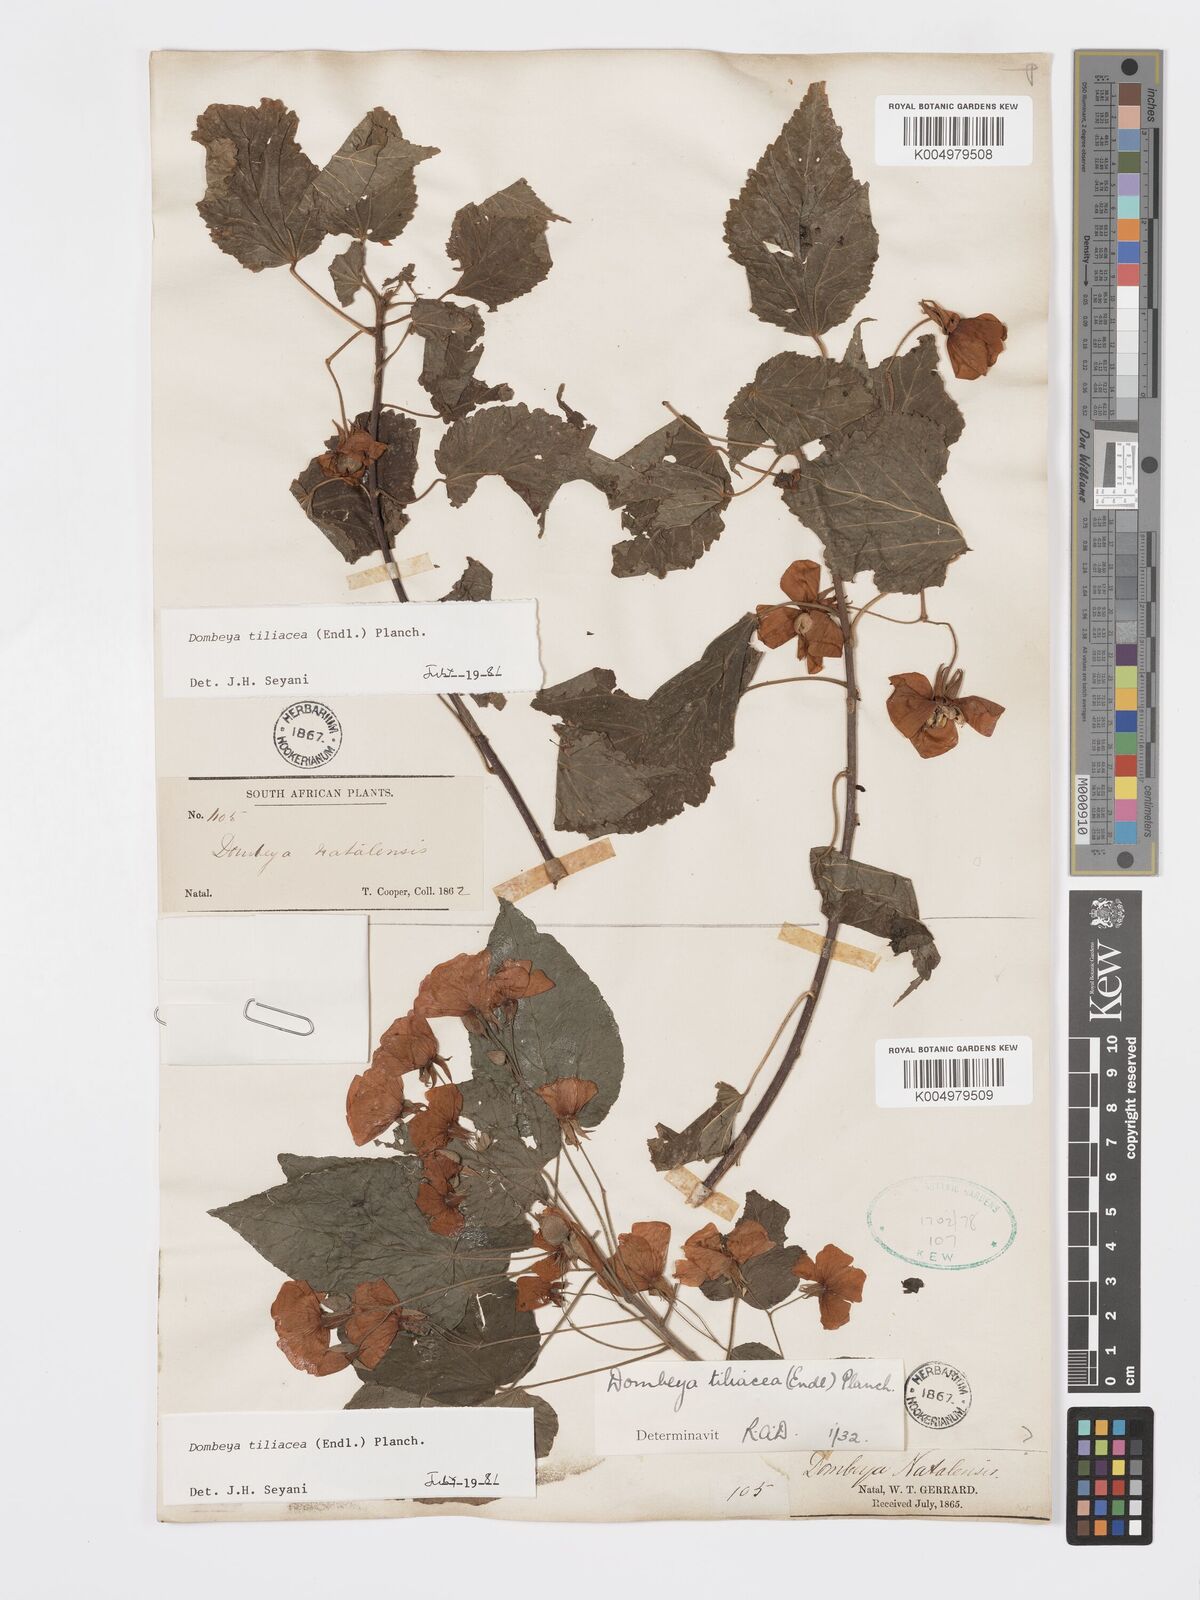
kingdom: Plantae
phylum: Tracheophyta
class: Magnoliopsida
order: Malvales
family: Malvaceae
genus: Dombeya
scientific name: Dombeya tiliacea
